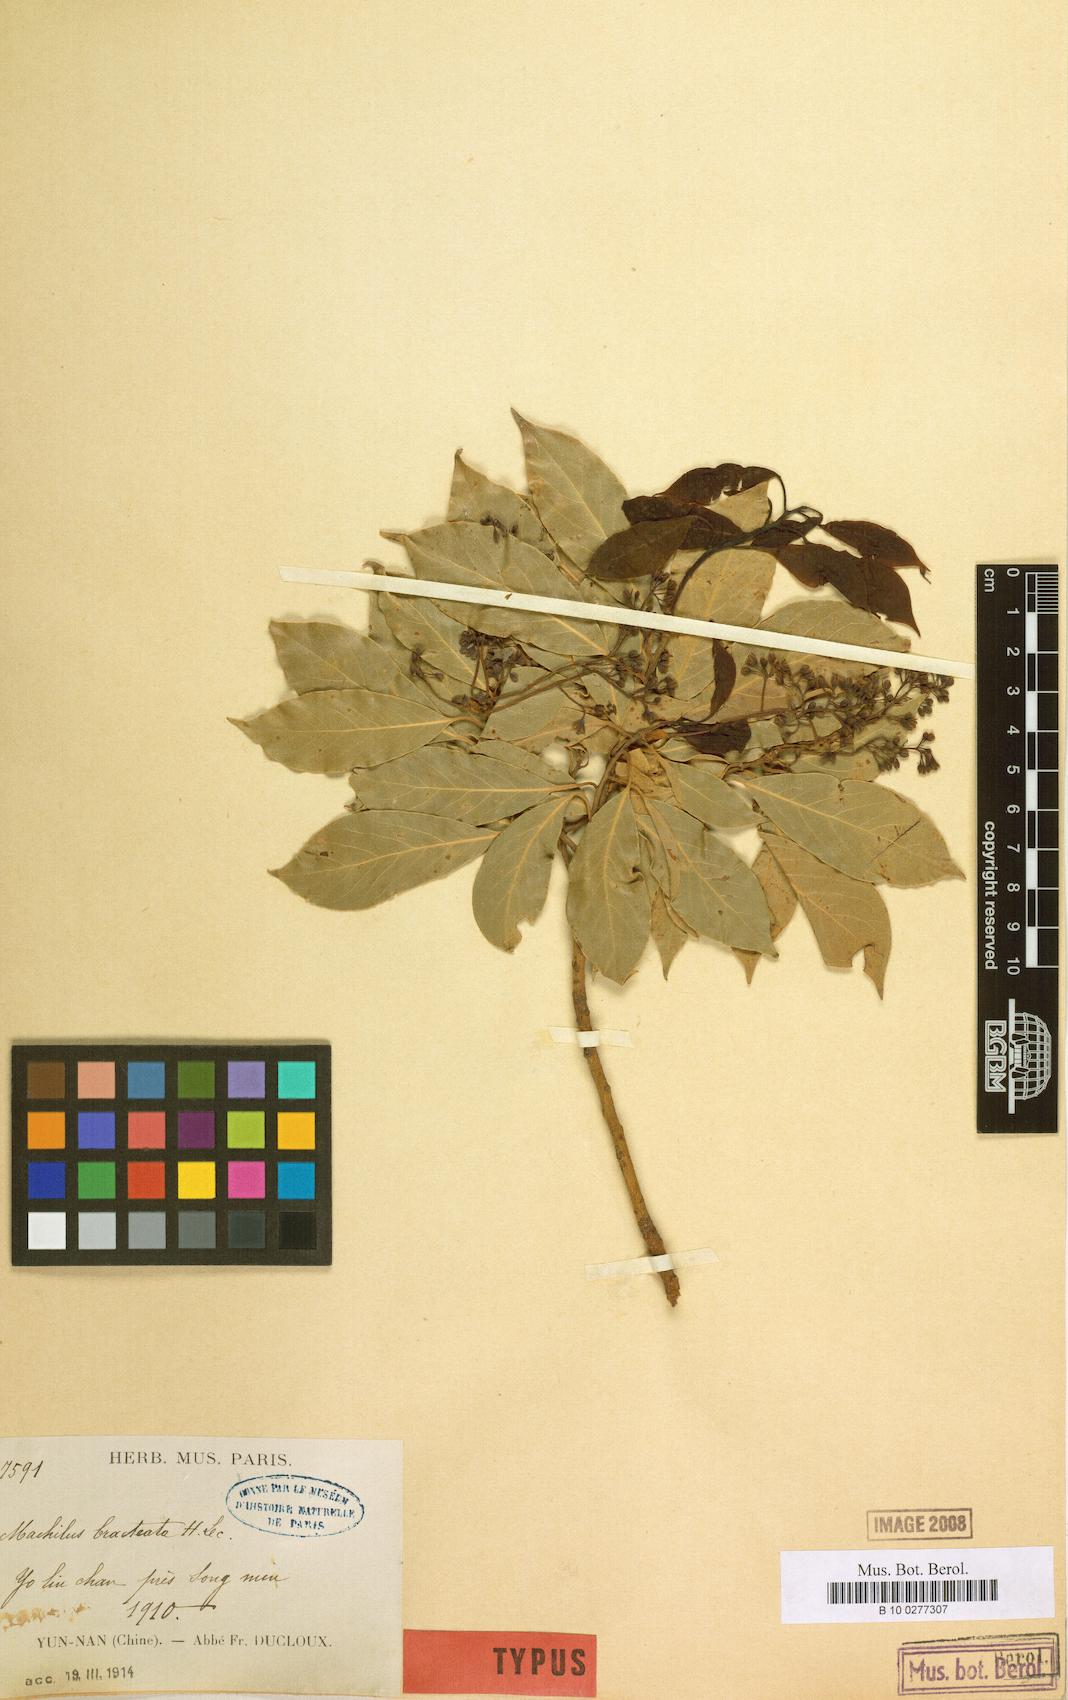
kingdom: Plantae
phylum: Tracheophyta
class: Magnoliopsida
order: Laurales
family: Lauraceae
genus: Machilus
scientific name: Machilus yunnanensis
